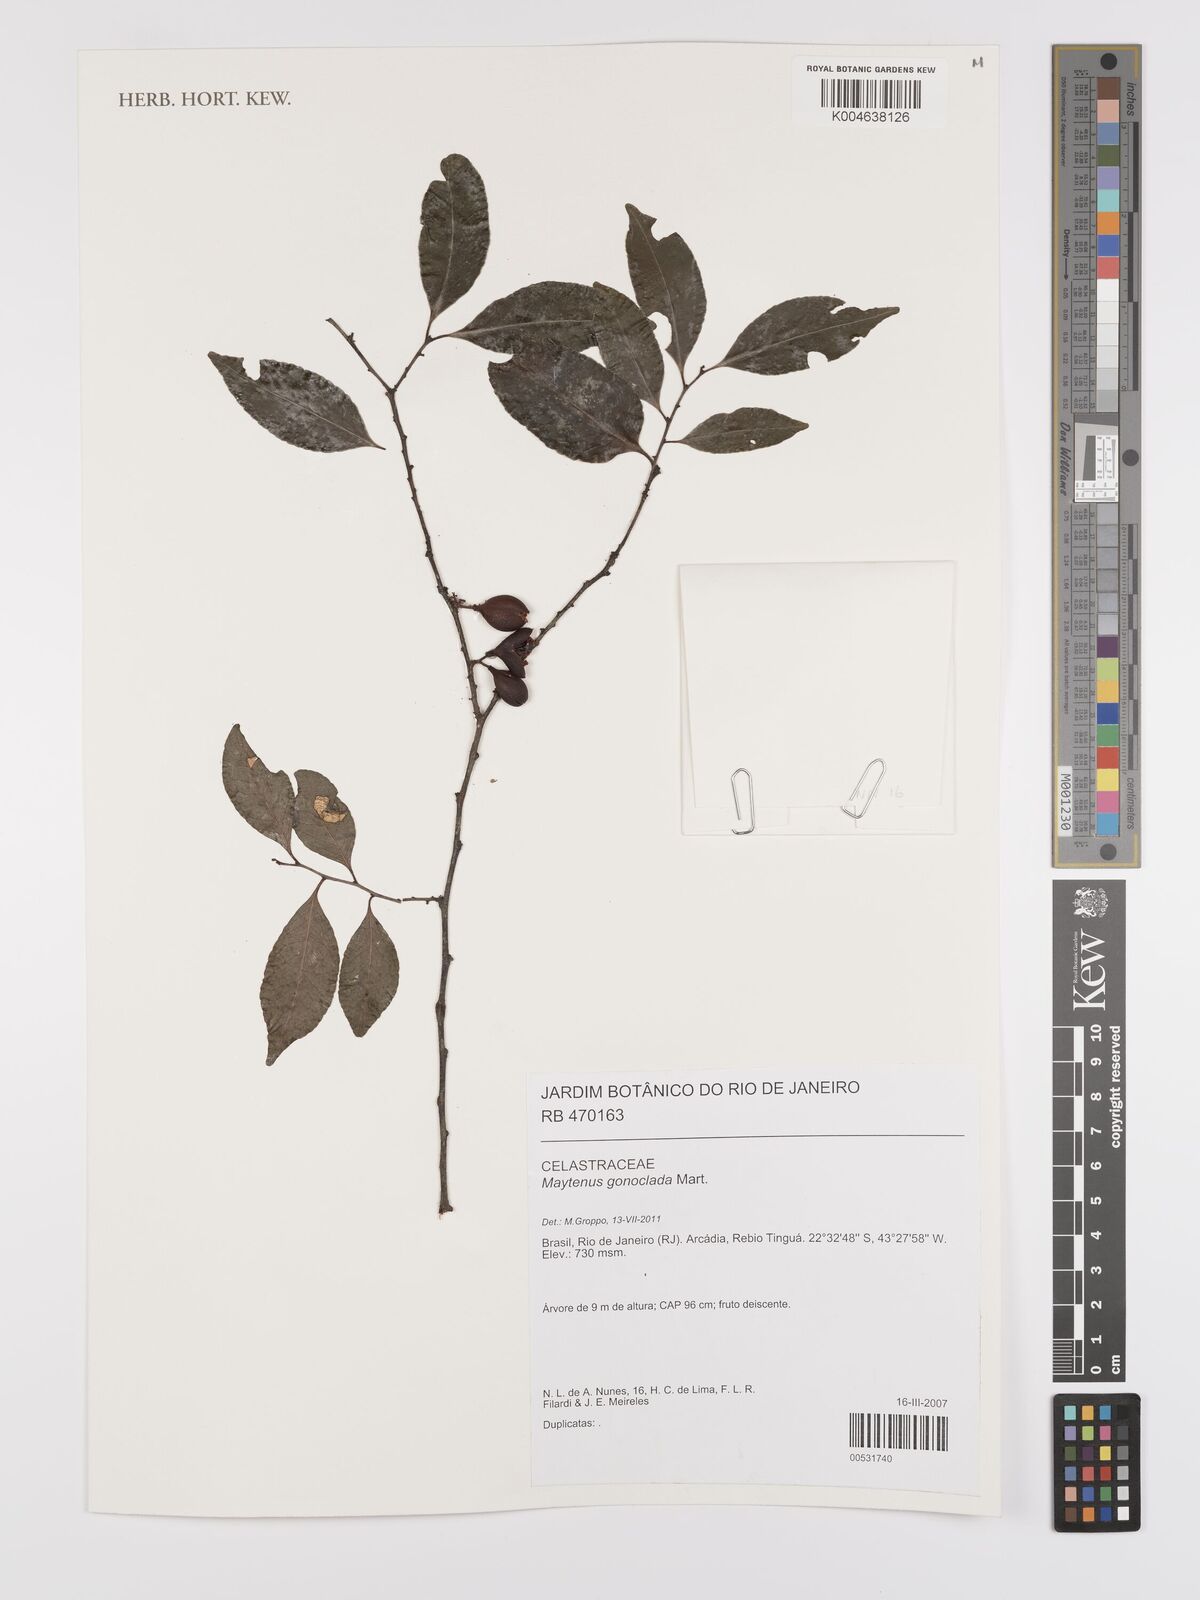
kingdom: Plantae
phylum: Tracheophyta
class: Magnoliopsida
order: Celastrales
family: Celastraceae
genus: Monteverdia
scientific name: Monteverdia gonoclada
